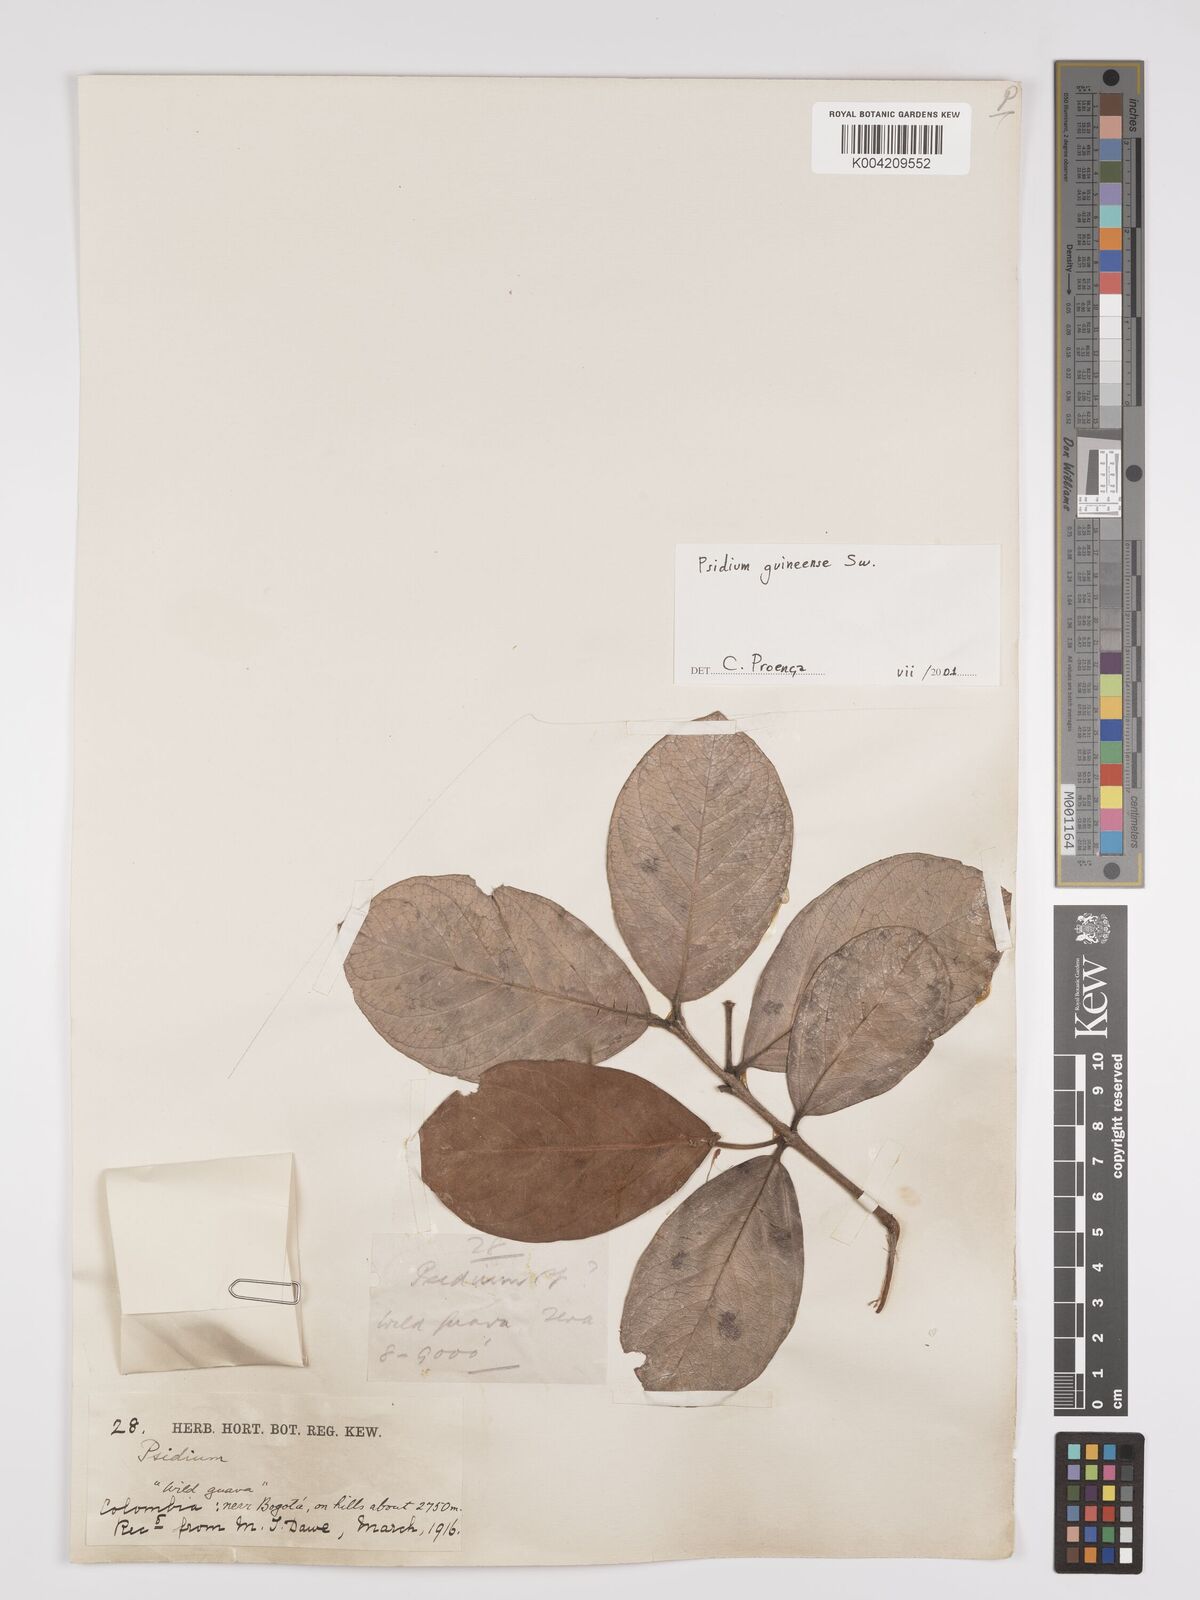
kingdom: Plantae
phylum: Tracheophyta
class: Magnoliopsida
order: Myrtales
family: Myrtaceae
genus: Psidium
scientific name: Psidium guineense
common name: Brazilian guava
